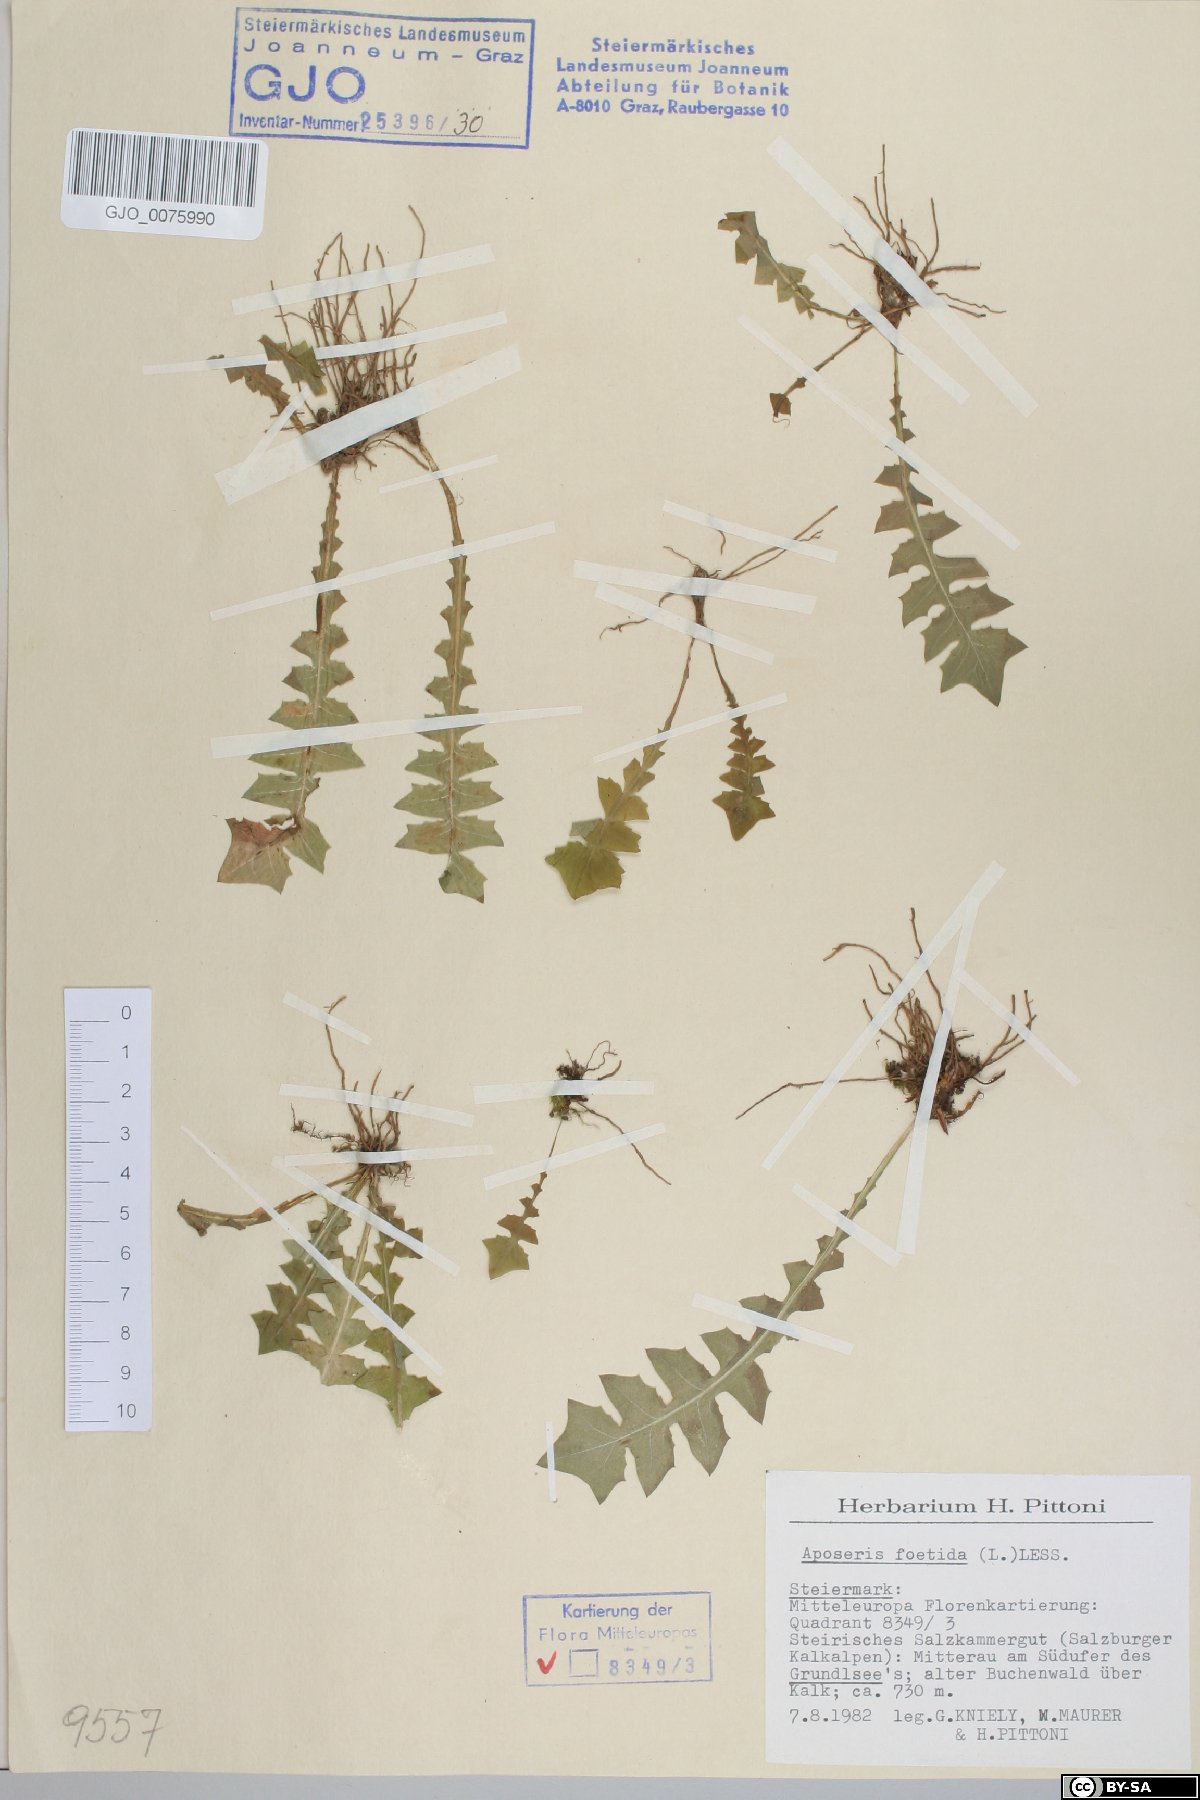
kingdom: Plantae
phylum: Tracheophyta
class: Magnoliopsida
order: Asterales
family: Asteraceae
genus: Aposeris
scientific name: Aposeris foetida
